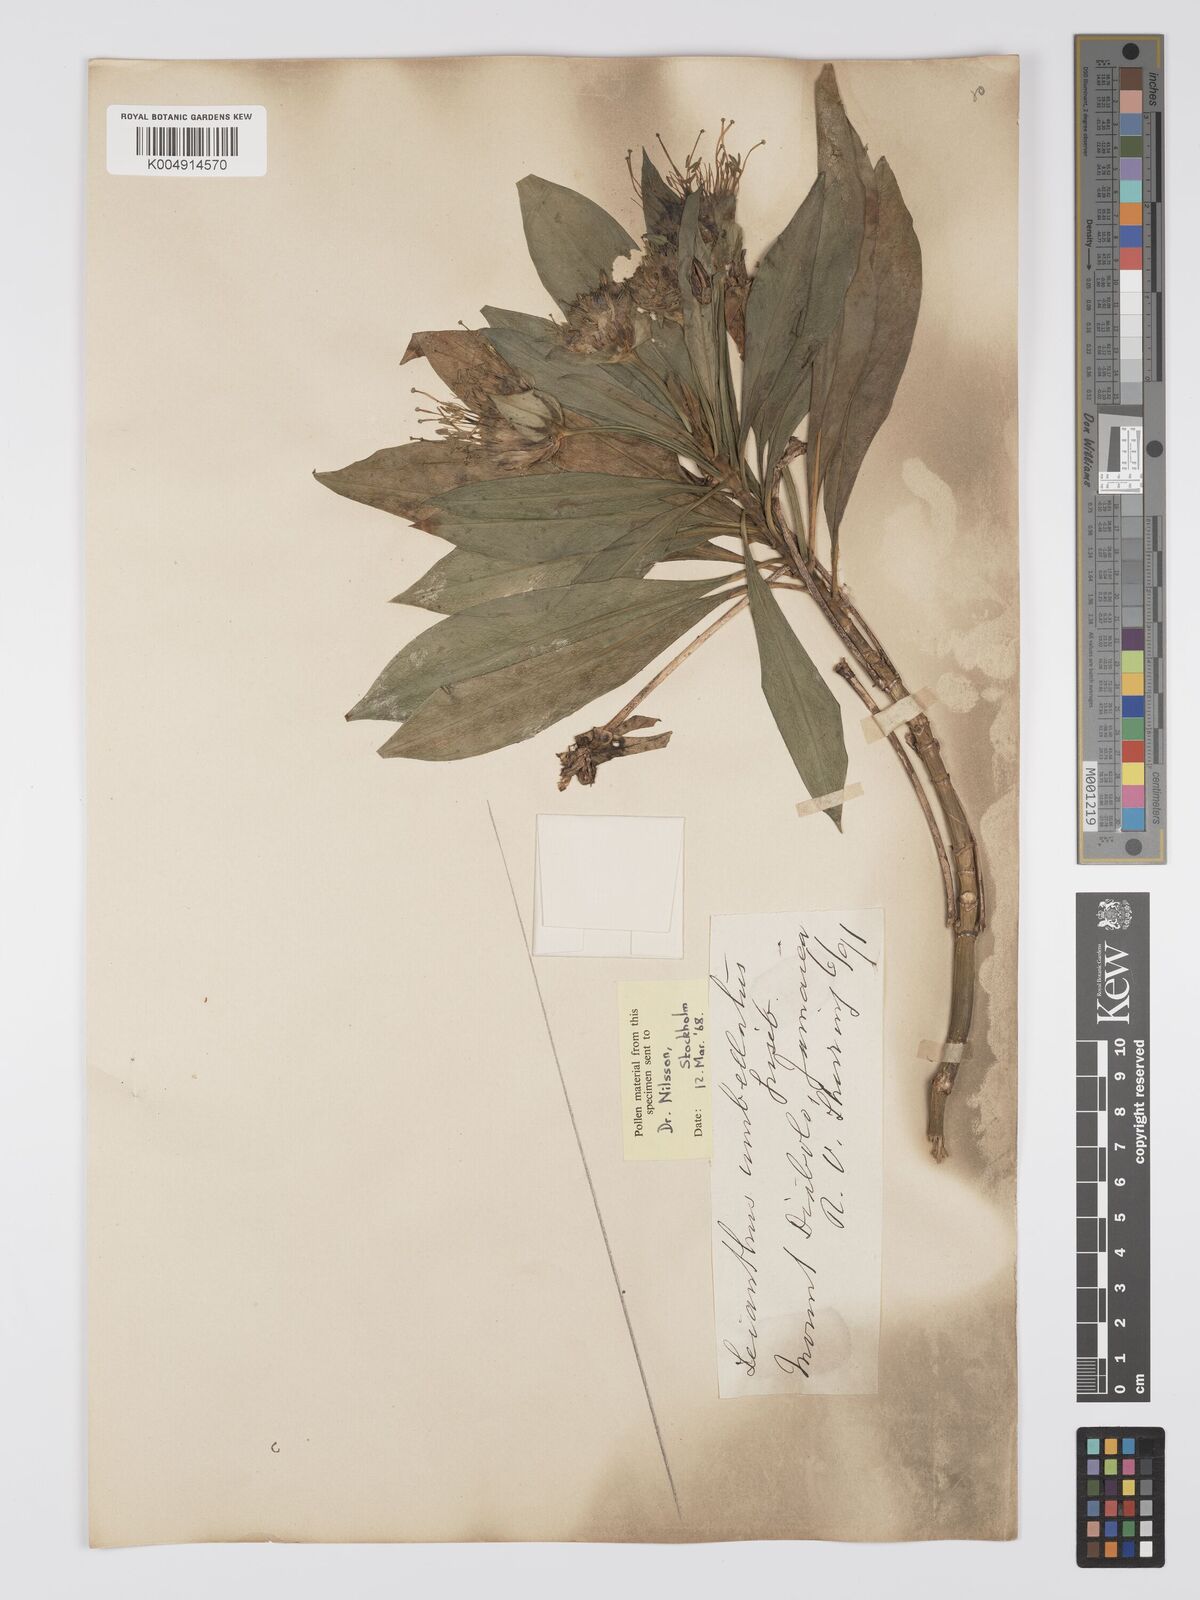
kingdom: Plantae
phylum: Tracheophyta
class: Magnoliopsida
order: Gentianales
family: Gentianaceae
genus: Lisianthus
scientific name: Lisianthus umbellatus
